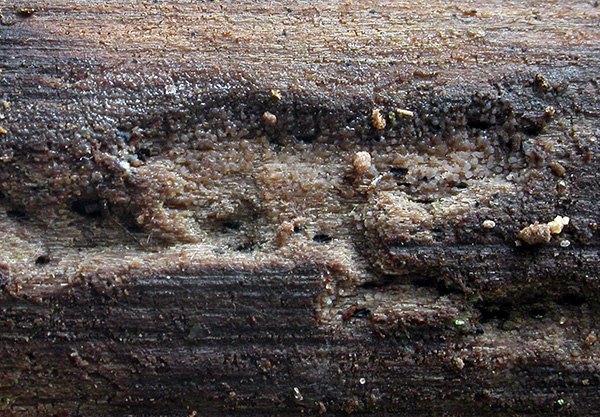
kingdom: Fungi
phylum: Basidiomycota
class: Agaricomycetes
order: Auriculariales
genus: Stypella
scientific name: Stypella grilletii
